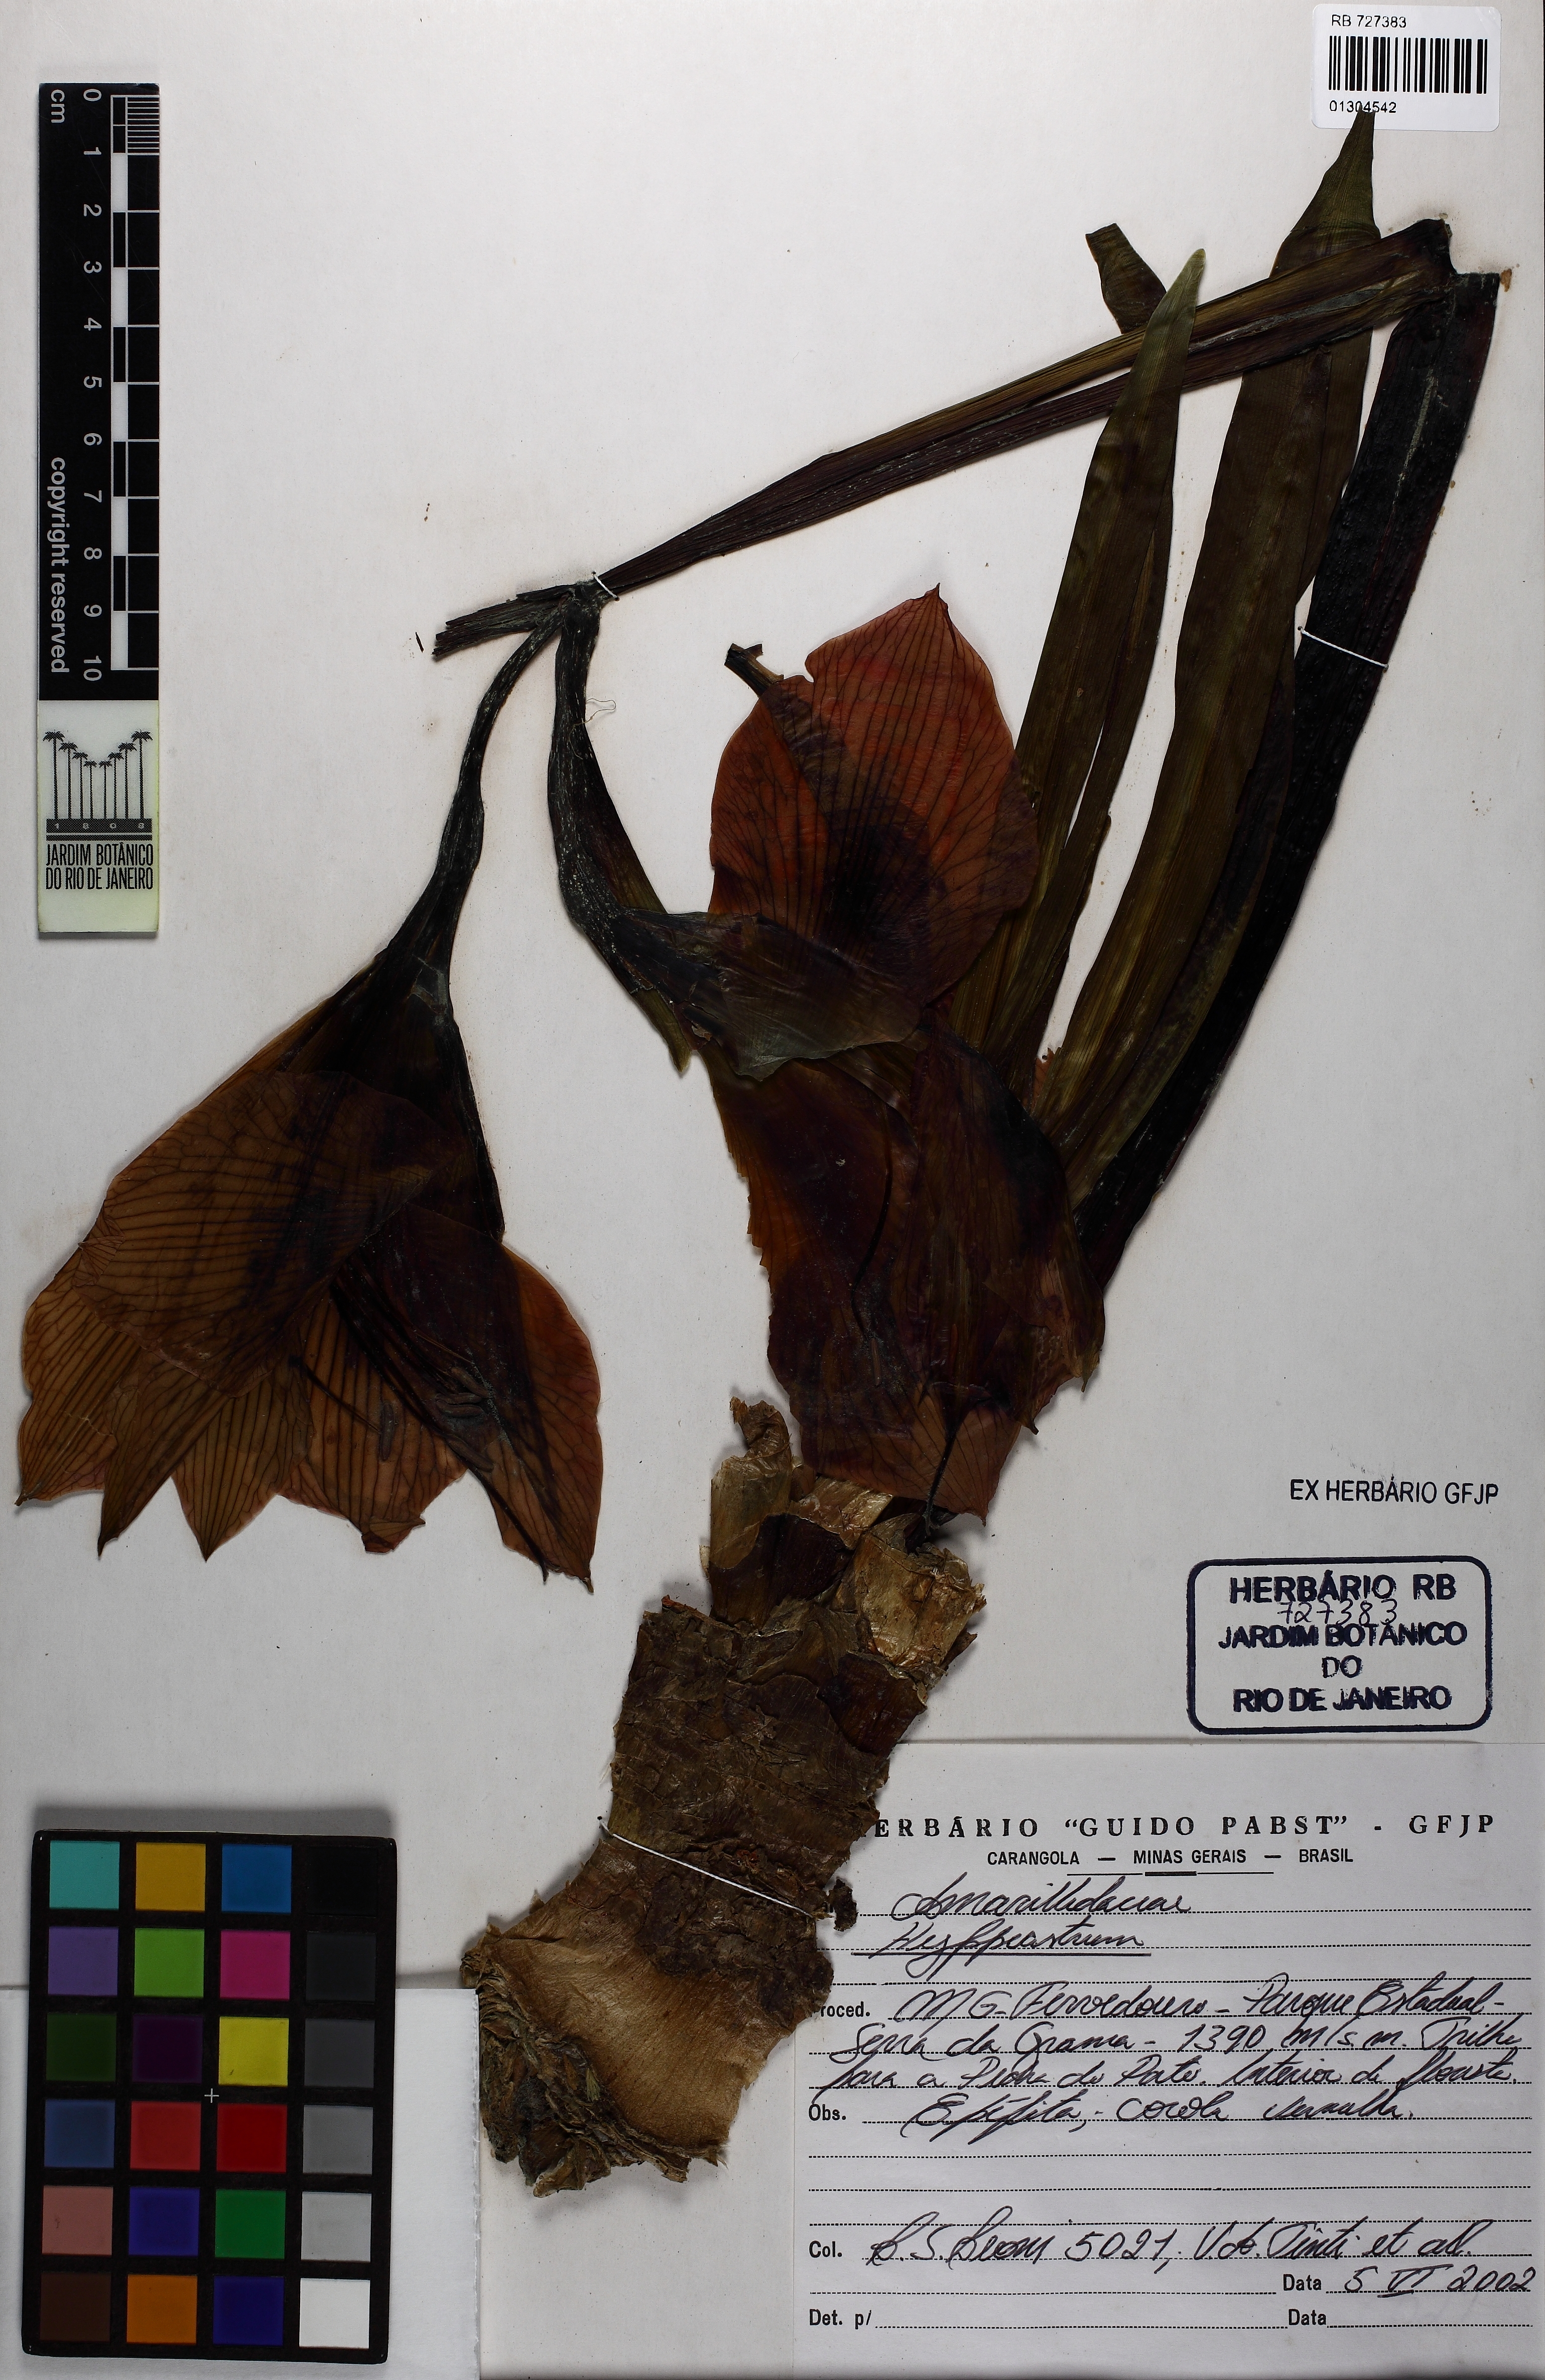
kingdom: Plantae
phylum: Tracheophyta
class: Liliopsida
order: Asparagales
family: Amaryllidaceae
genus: Hippeastrum
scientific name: Hippeastrum glaucescens
